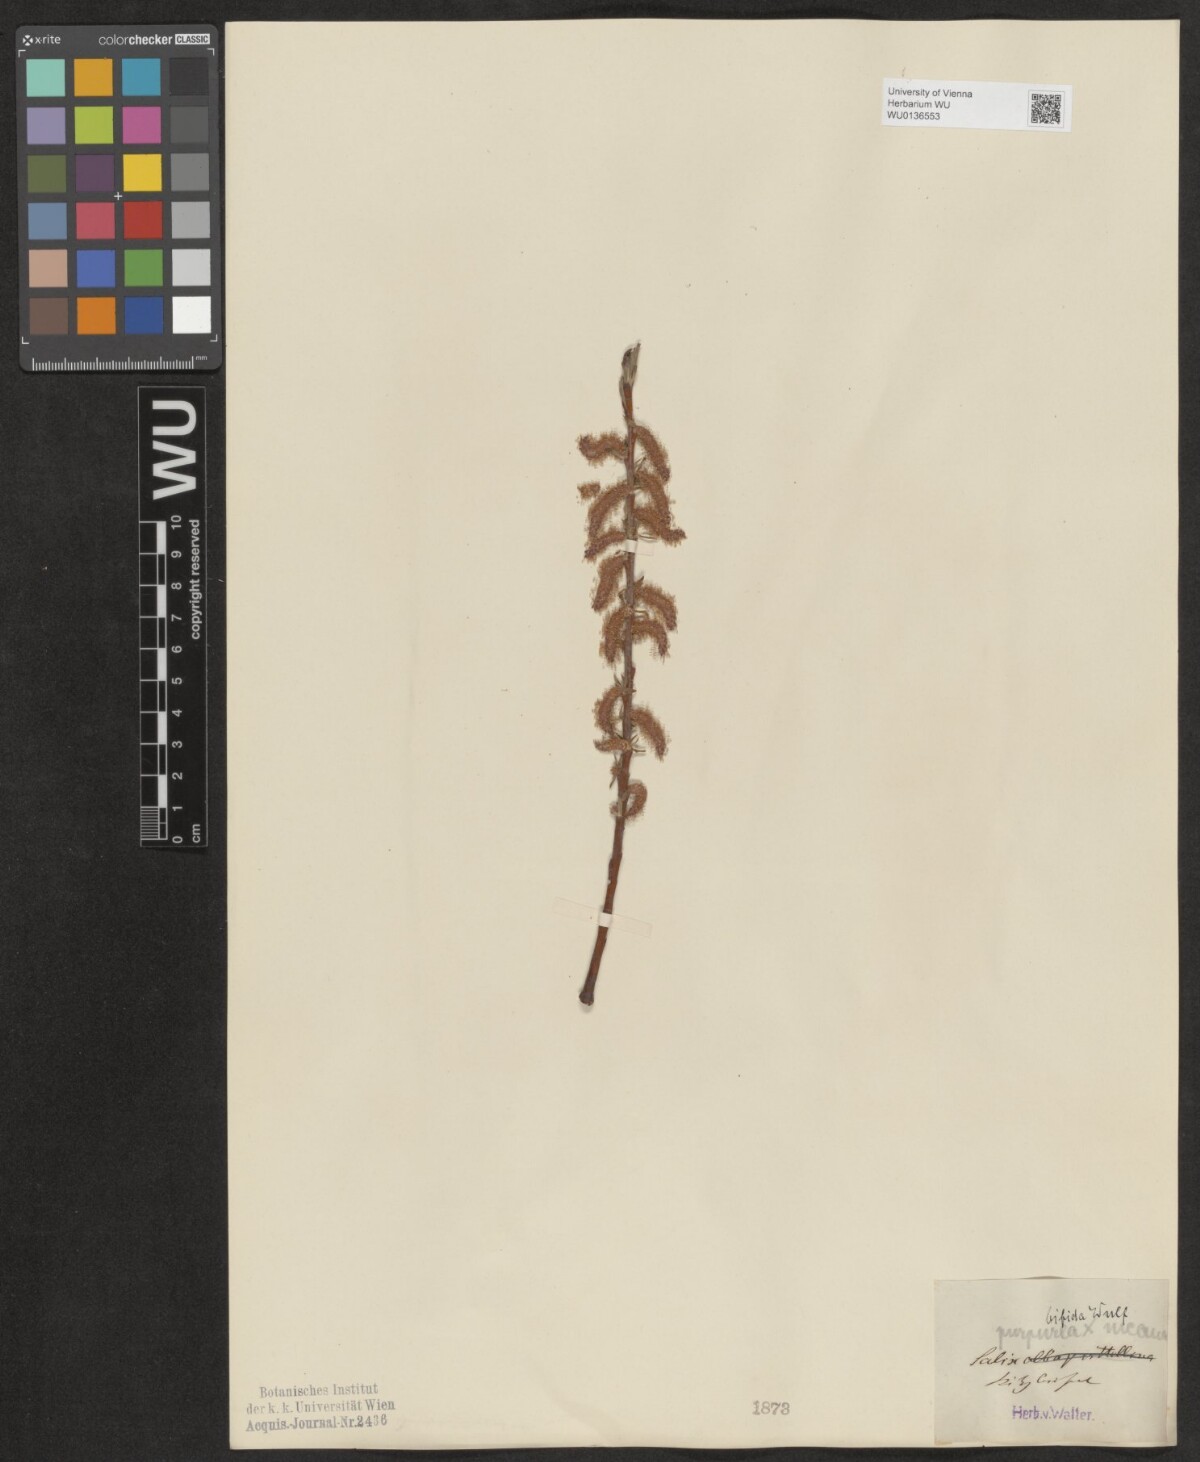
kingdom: Plantae
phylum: Tracheophyta
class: Magnoliopsida
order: Malpighiales
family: Salicaceae
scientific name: Salicaceae
